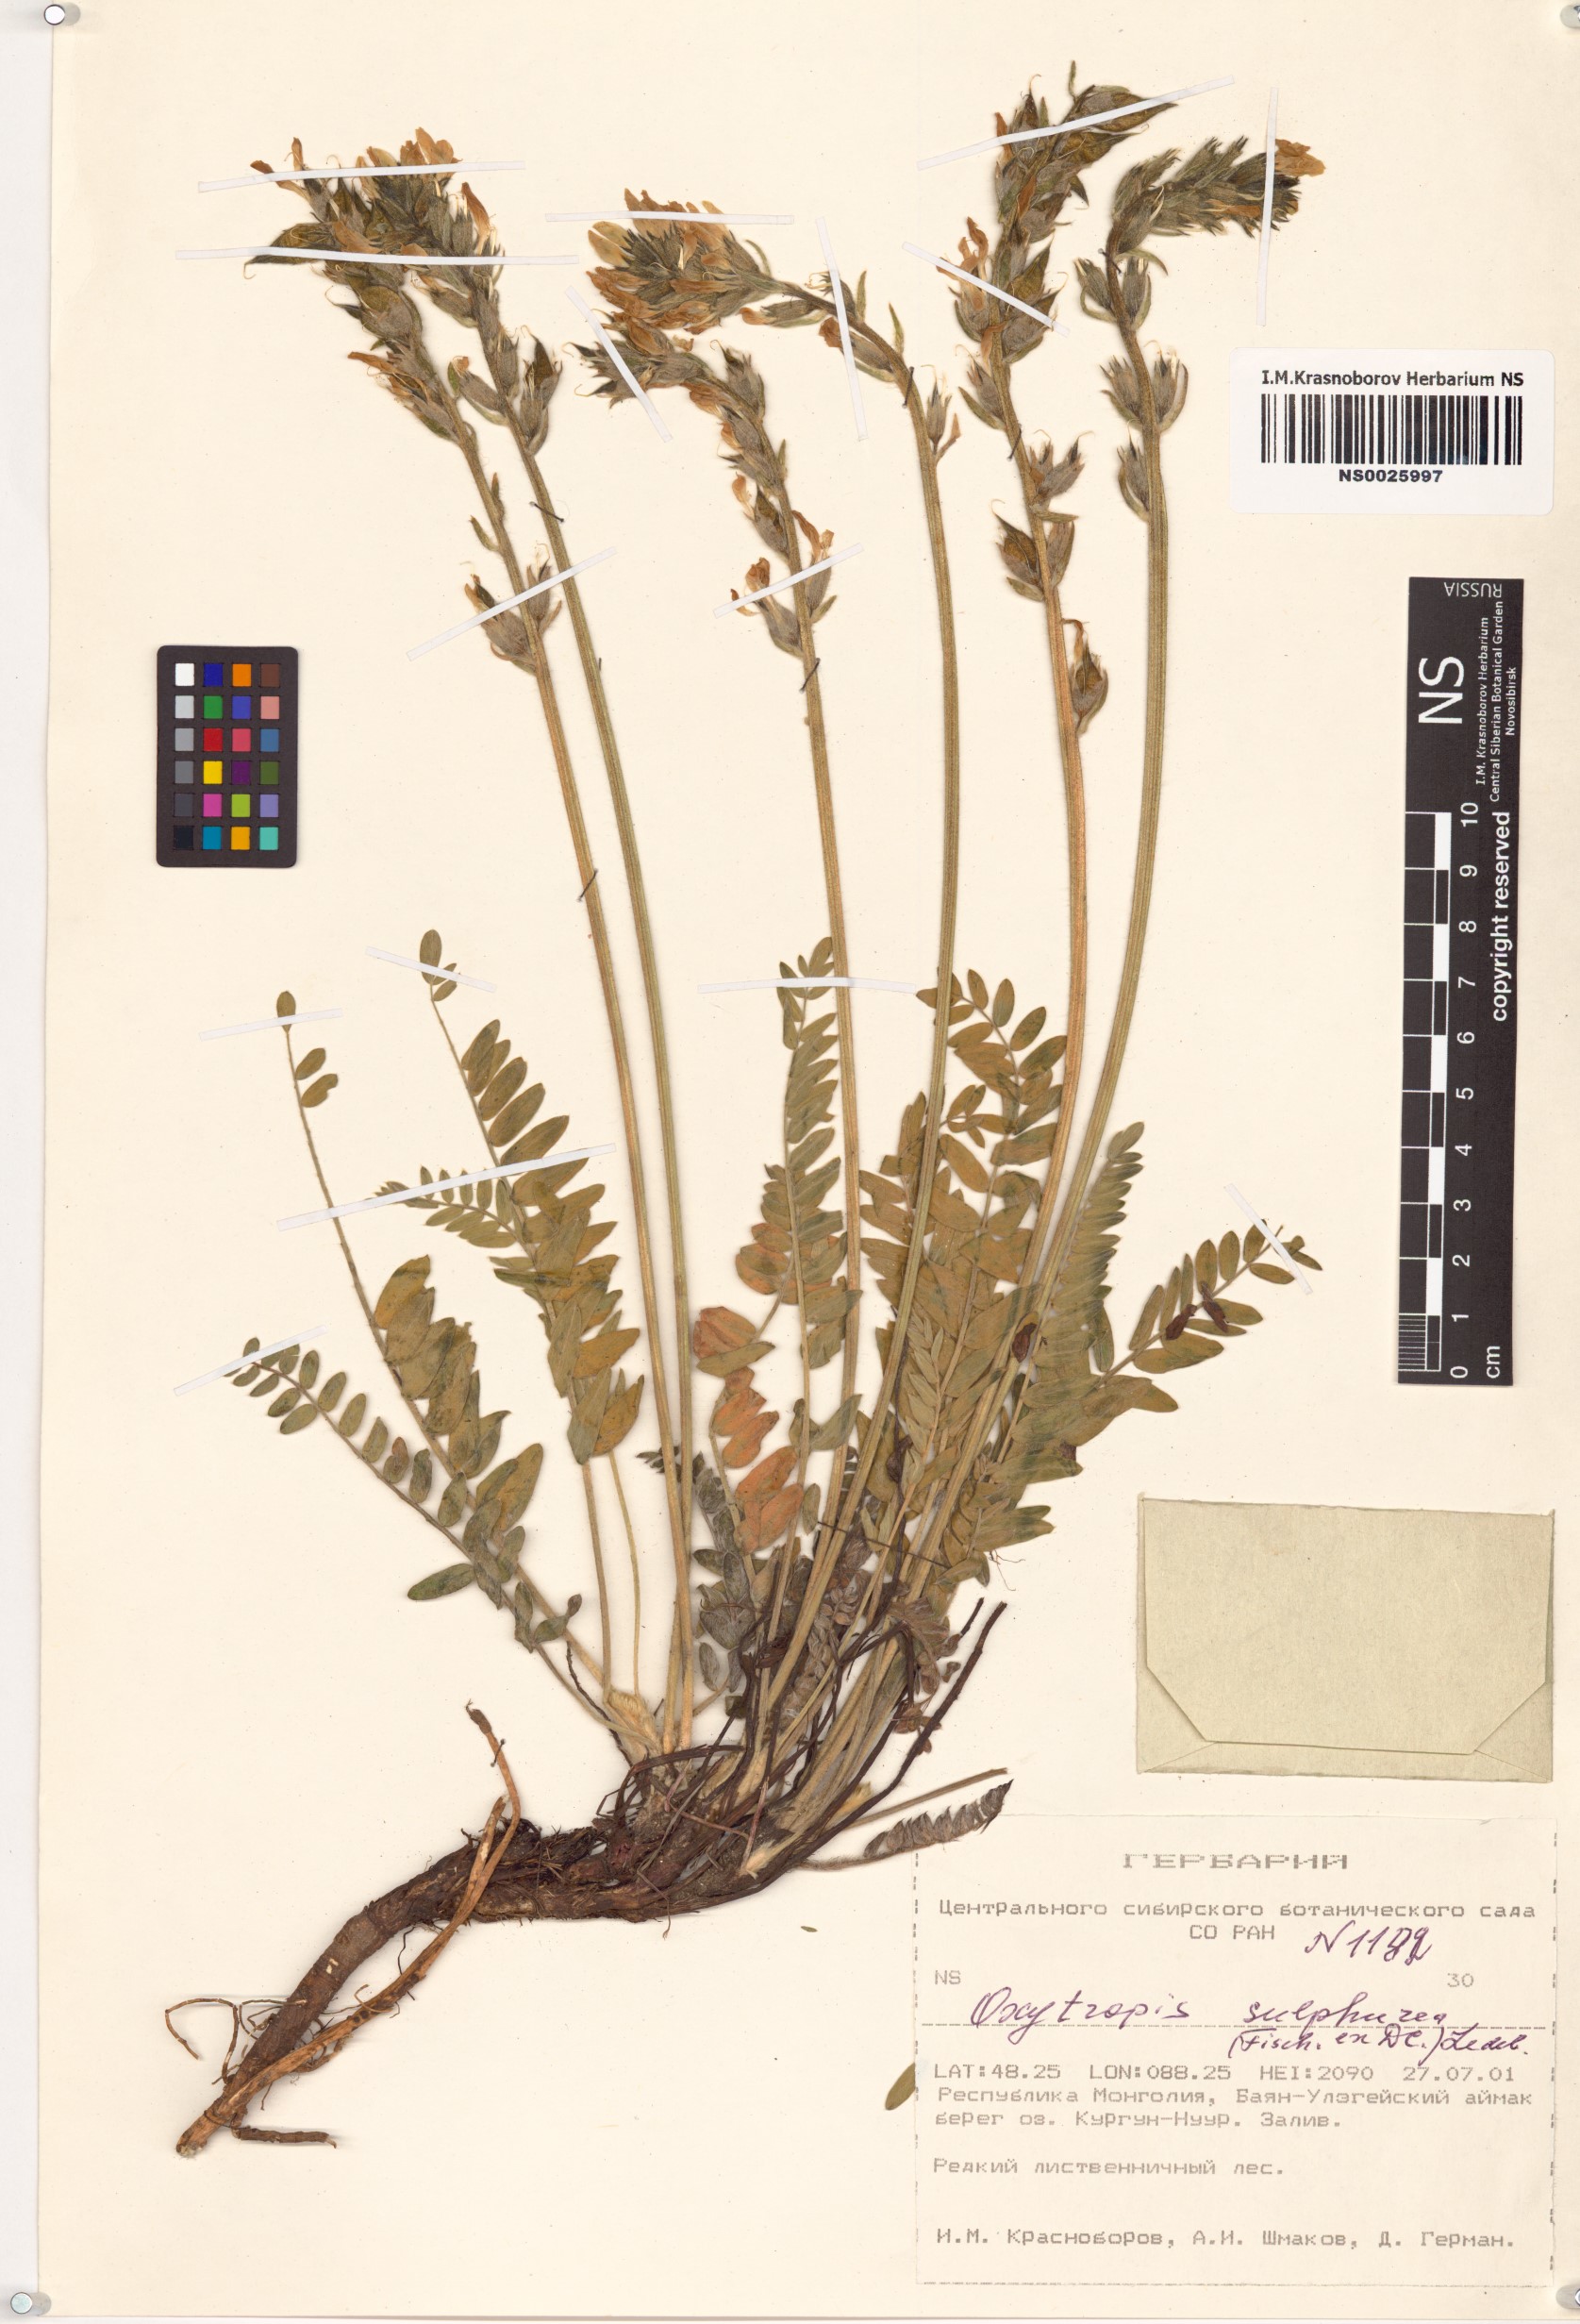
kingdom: Plantae
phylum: Tracheophyta
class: Magnoliopsida
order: Fabales
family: Fabaceae
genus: Oxytropis
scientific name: Oxytropis sulphurea
